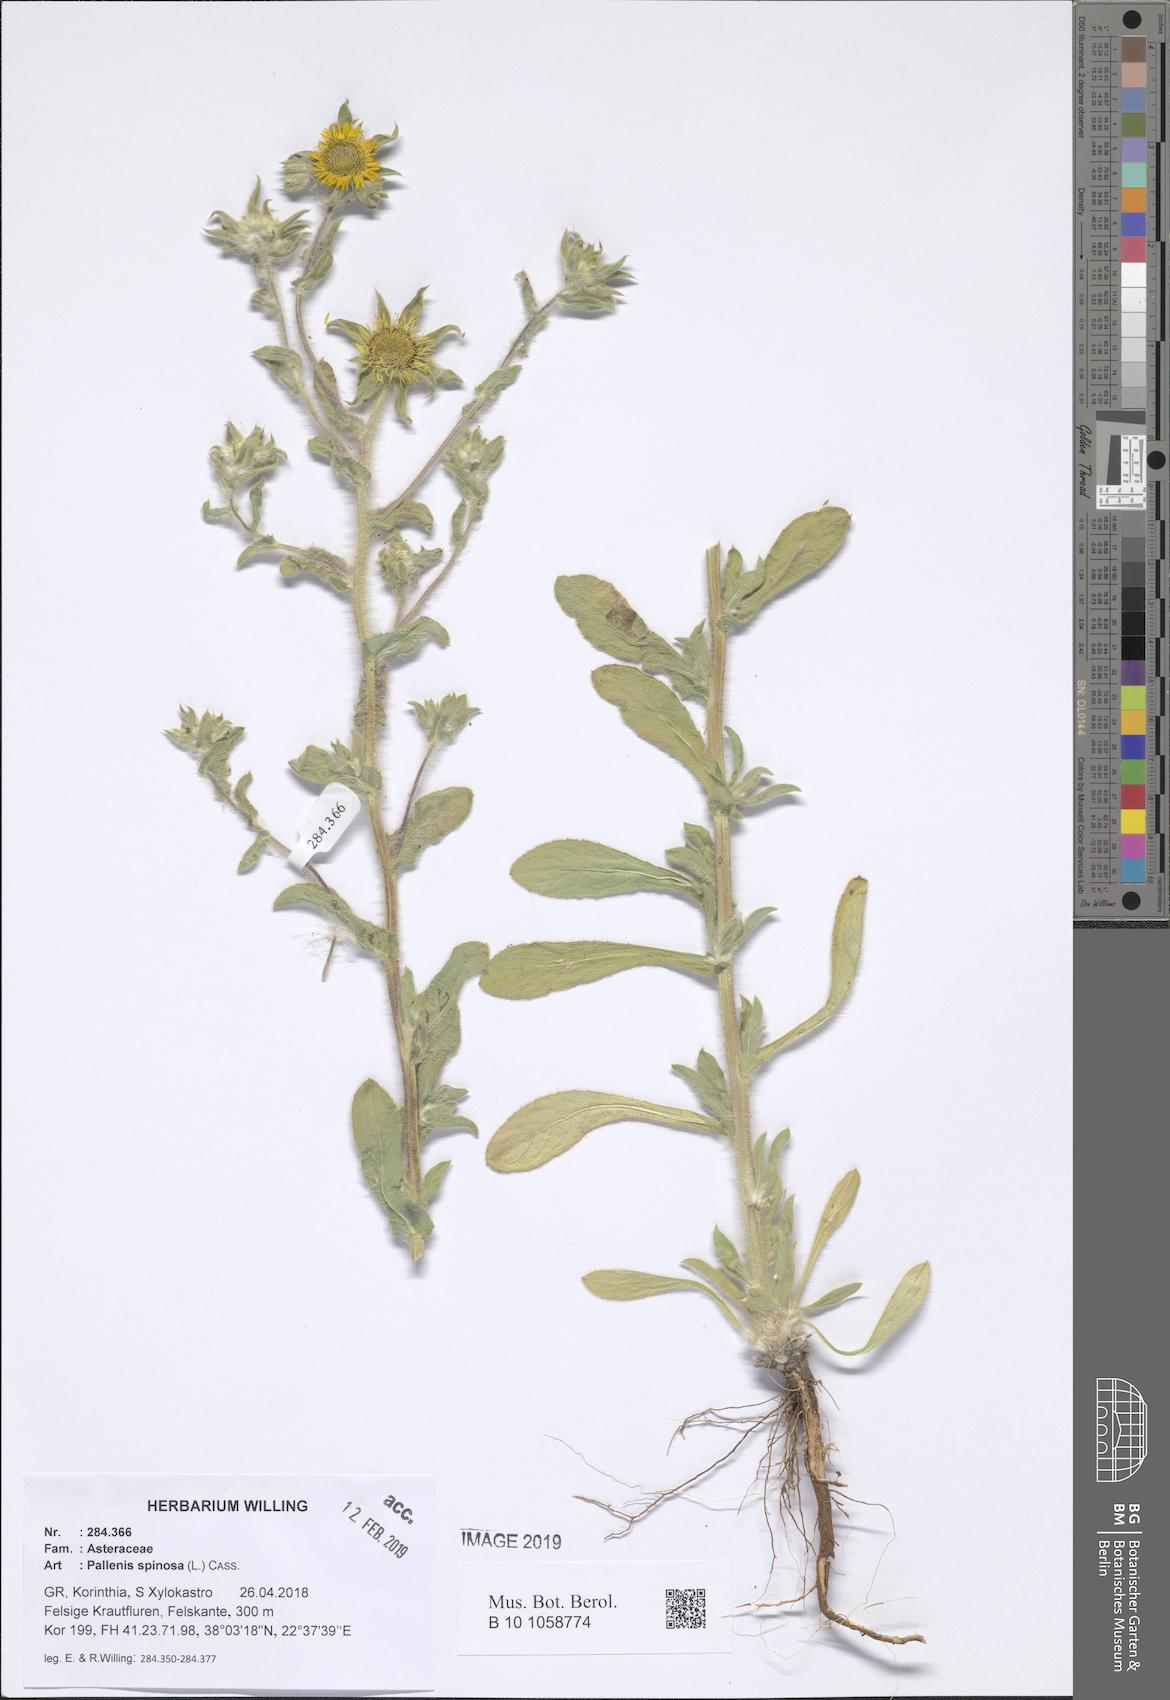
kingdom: Plantae
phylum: Tracheophyta
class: Magnoliopsida
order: Asterales
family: Asteraceae
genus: Pallenis
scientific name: Pallenis spinosa
